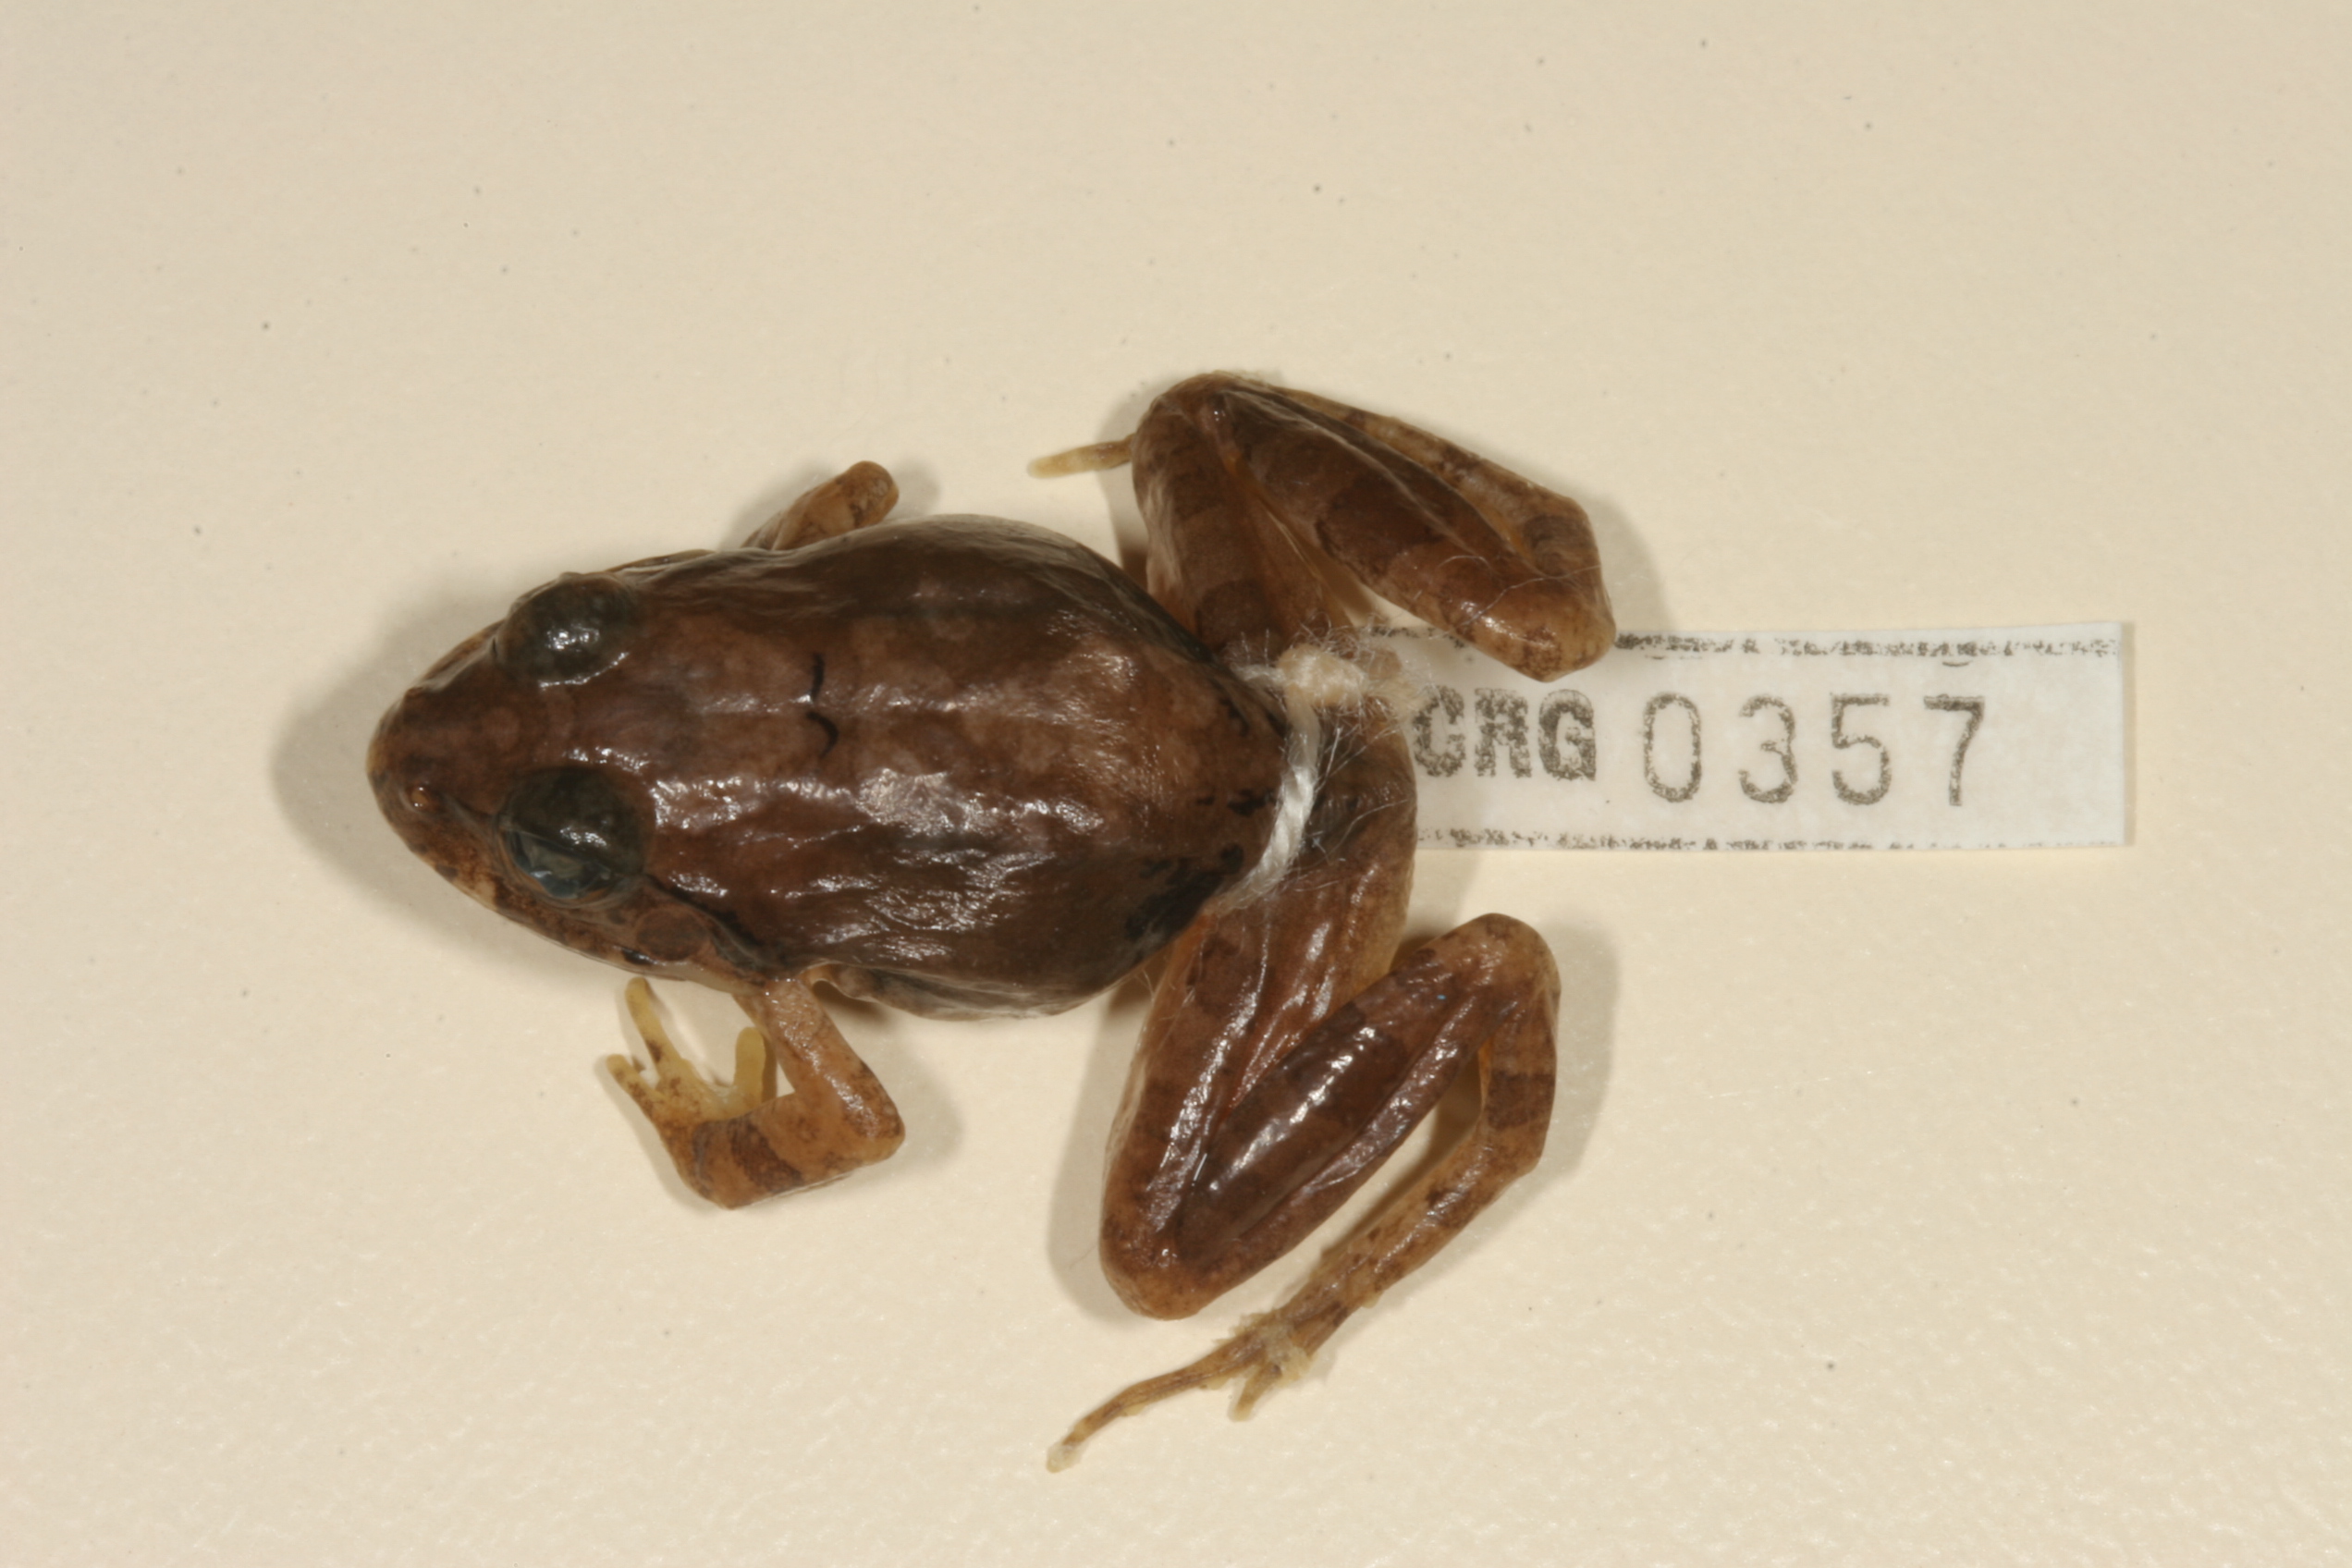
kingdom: Animalia
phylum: Chordata
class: Amphibia
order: Anura
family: Pyxicephalidae
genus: Tomopterna
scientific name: Tomopterna natalensis
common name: Natal sand frog
